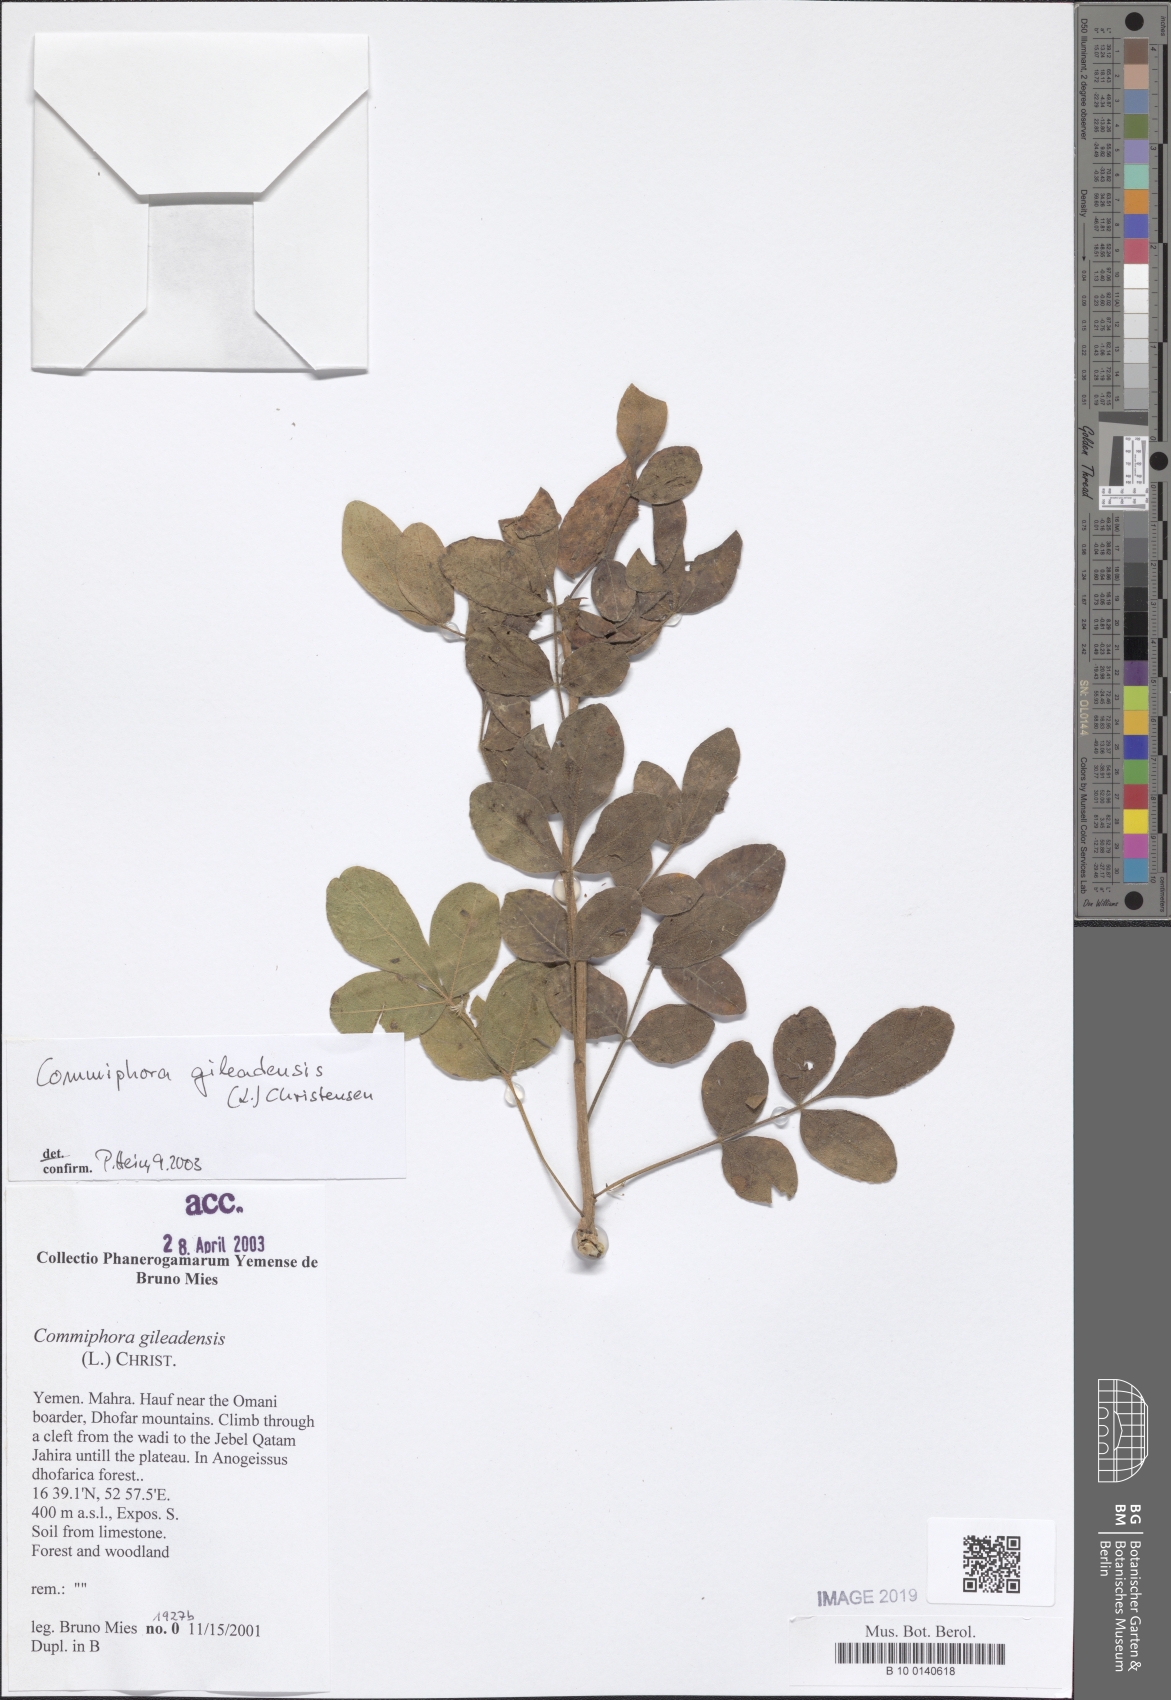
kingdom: Plantae
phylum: Tracheophyta
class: Magnoliopsida
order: Sapindales
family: Burseraceae
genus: Commiphora
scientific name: Commiphora gileadensis
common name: Balm-of-gilead
